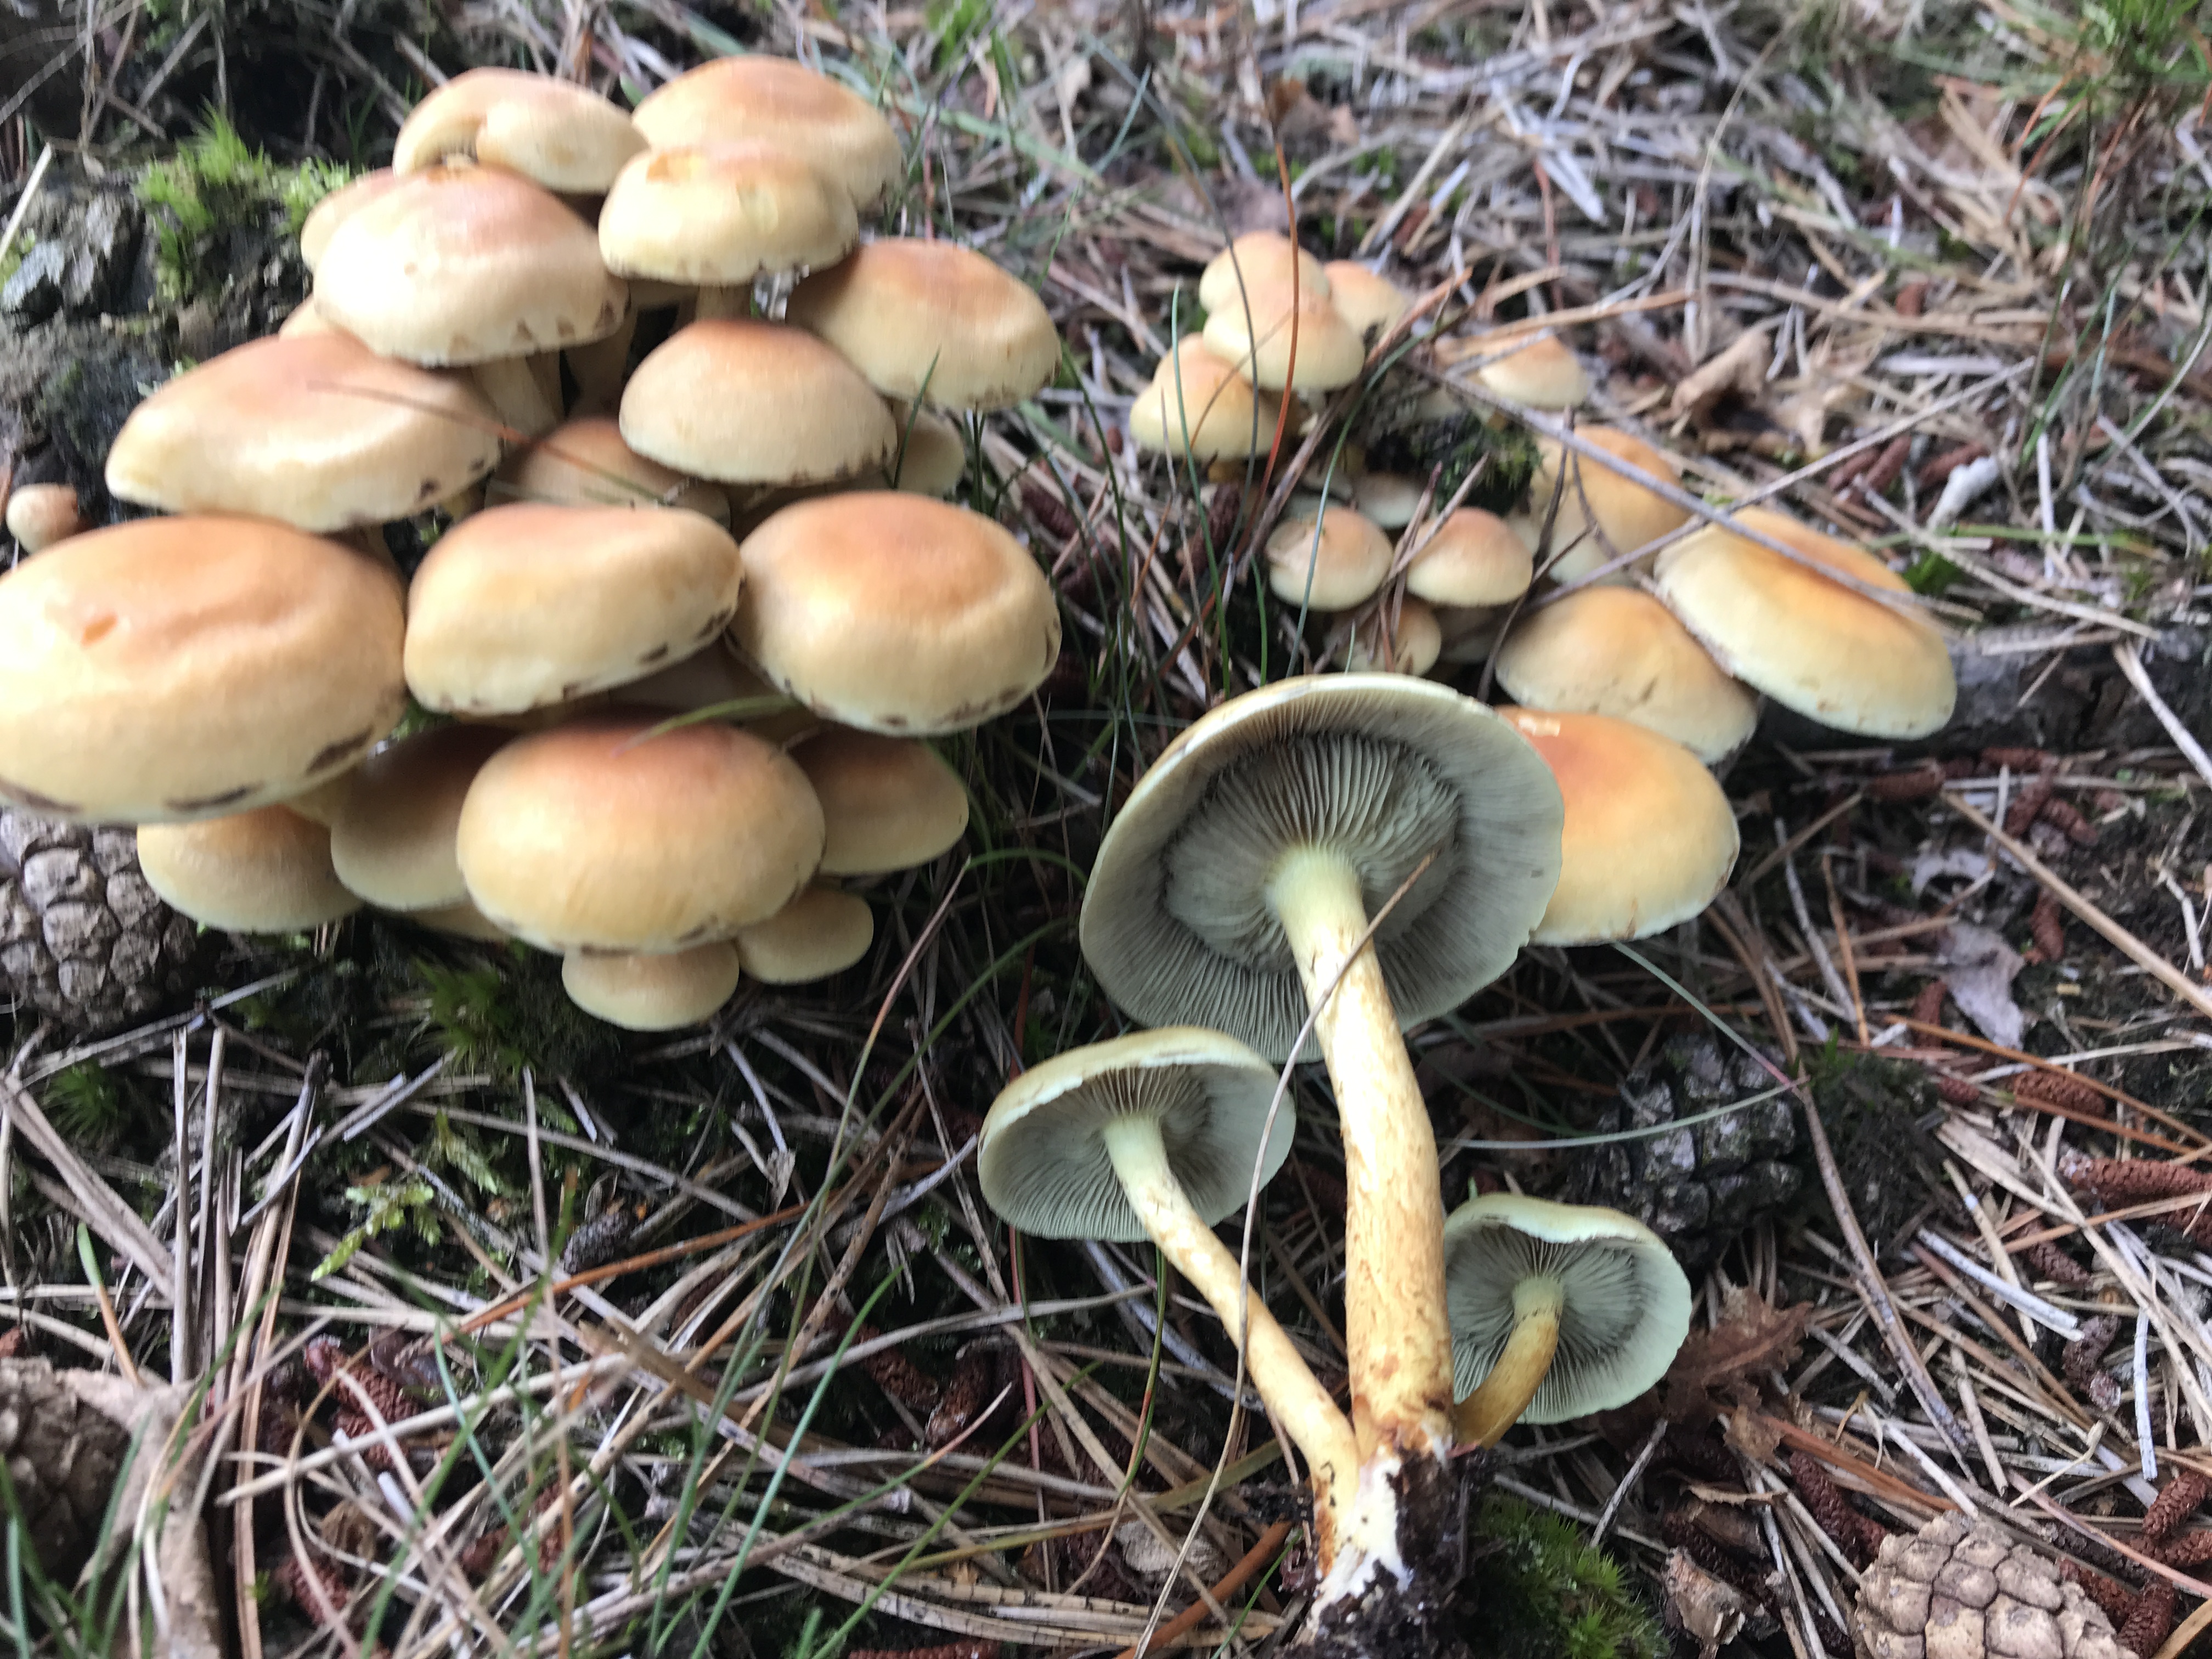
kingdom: Fungi
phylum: Basidiomycota
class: Agaricomycetes
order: Agaricales
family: Strophariaceae
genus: Hypholoma
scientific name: Hypholoma fasciculare
